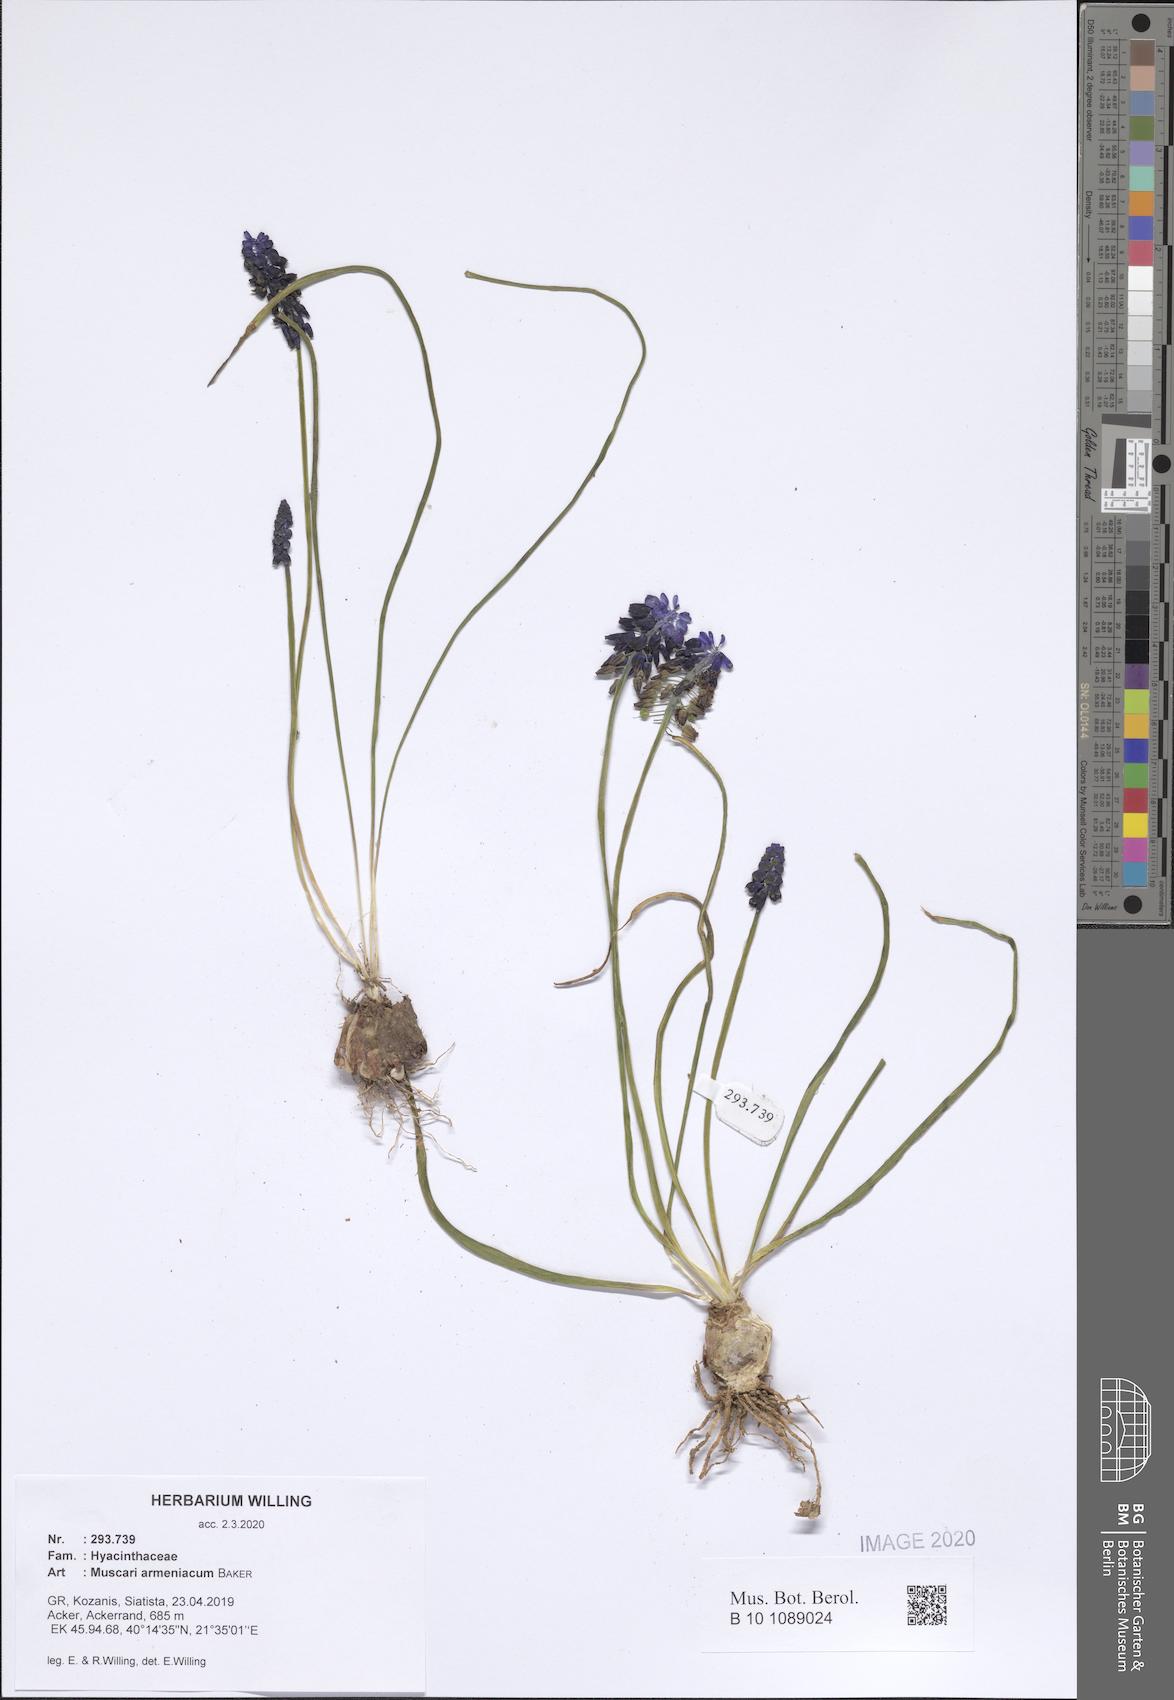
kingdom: Plantae
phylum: Tracheophyta
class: Liliopsida
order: Asparagales
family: Asparagaceae
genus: Muscari
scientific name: Muscari armeniacum
